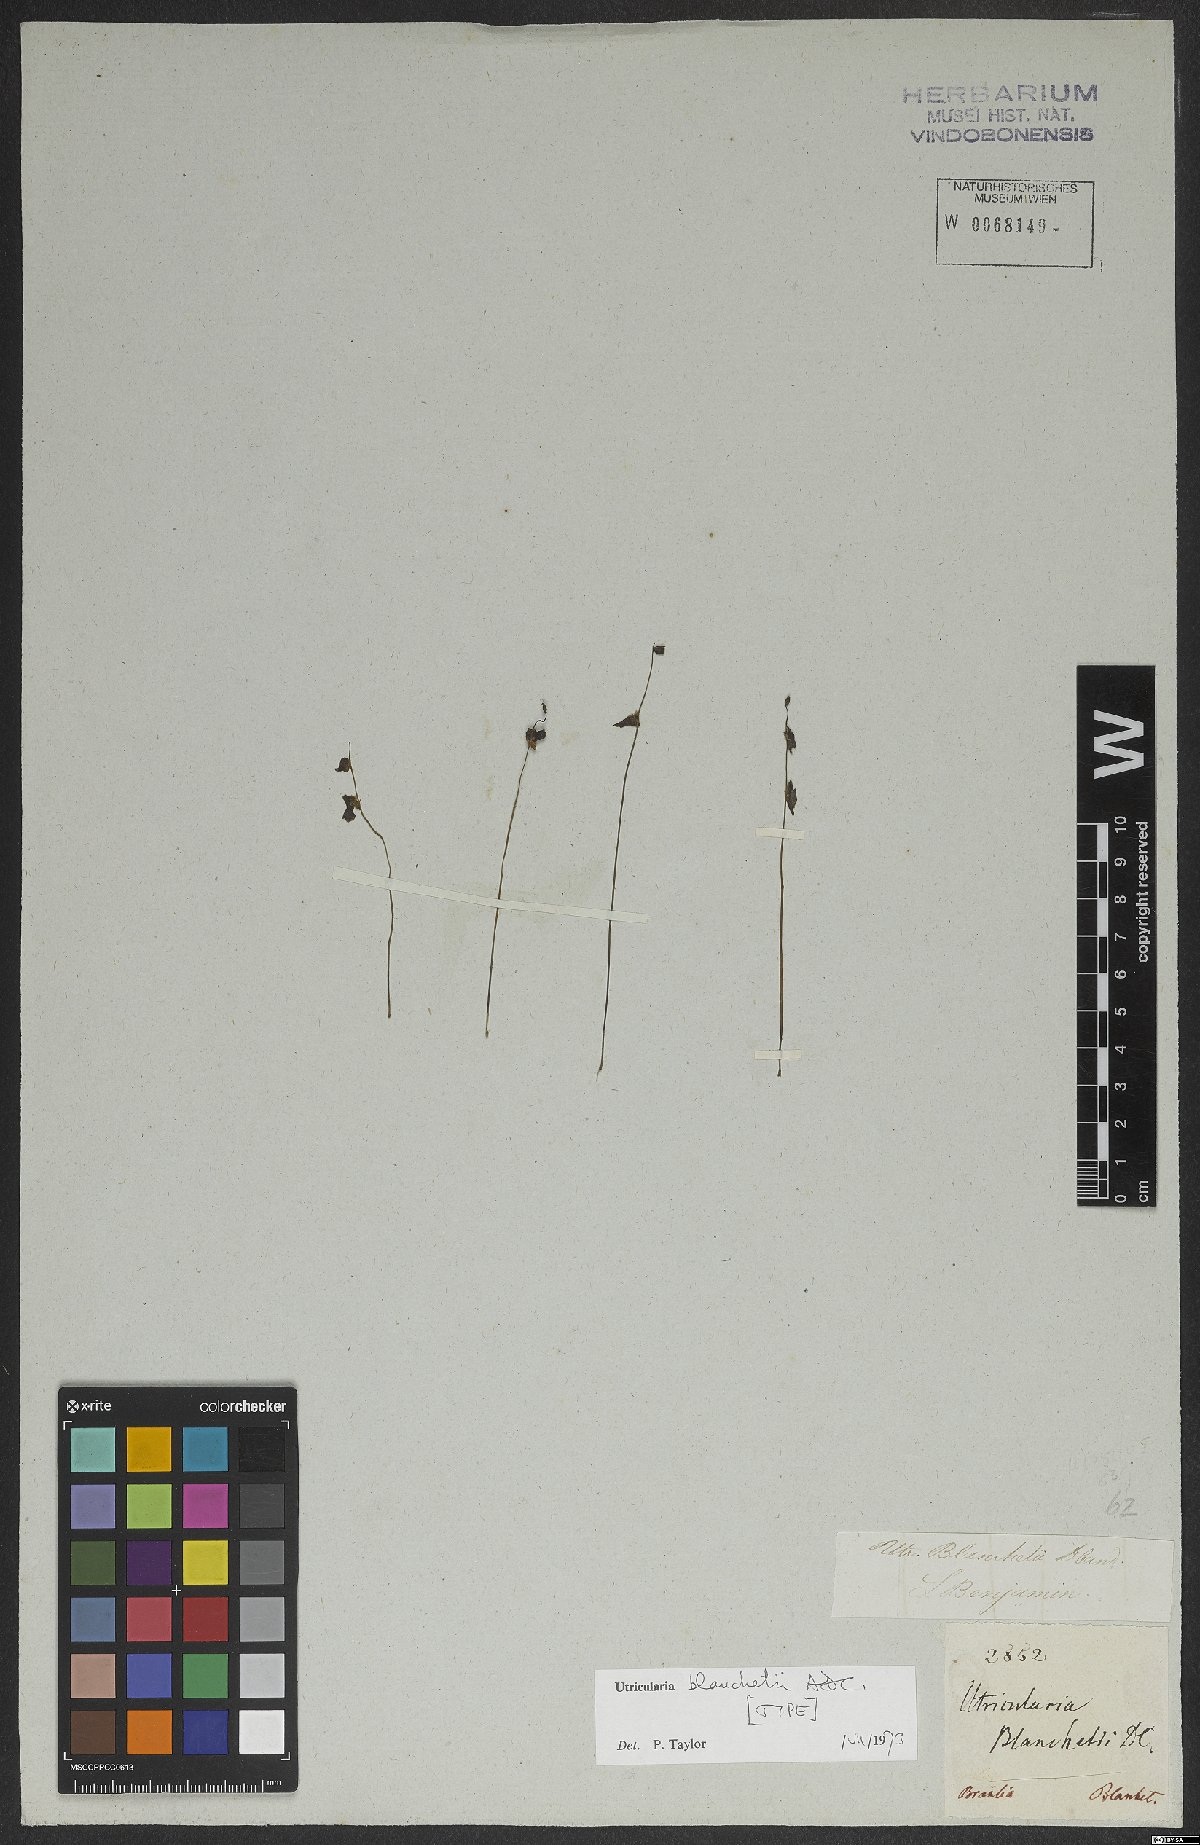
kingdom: Plantae
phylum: Tracheophyta
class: Magnoliopsida
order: Lamiales
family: Lentibulariaceae
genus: Utricularia
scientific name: Utricularia blanchetii
